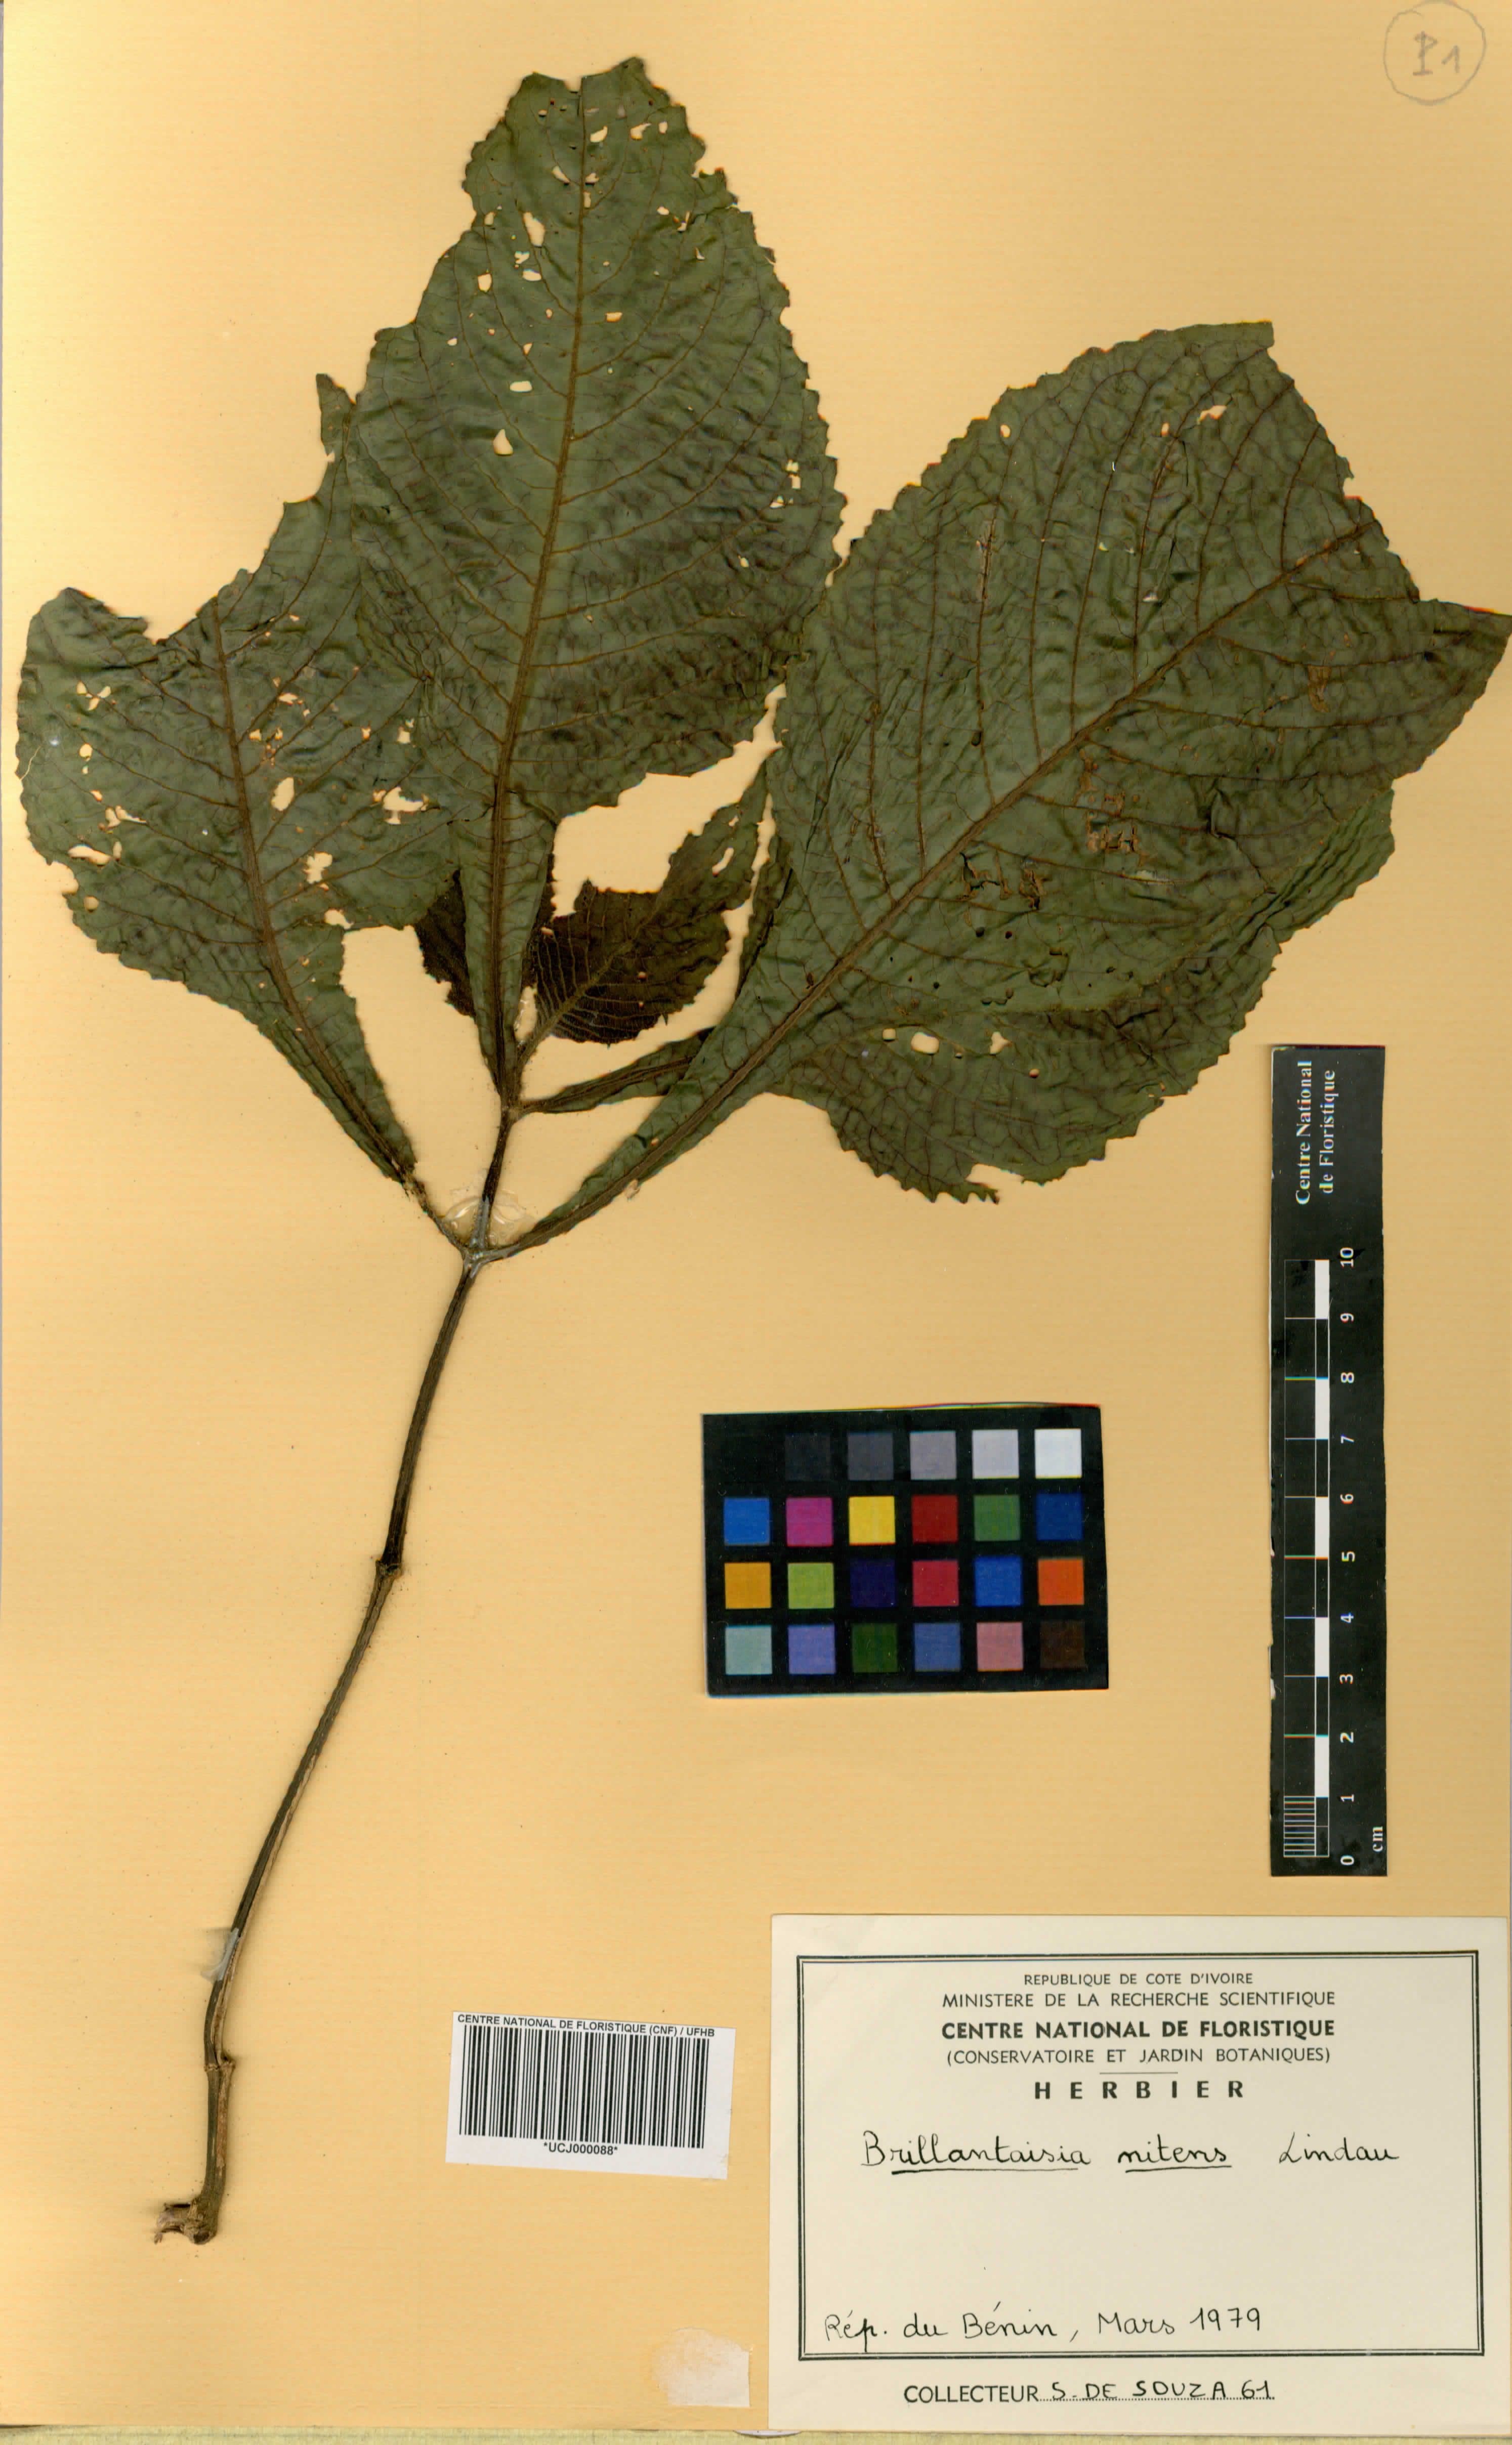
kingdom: Plantae
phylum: Tracheophyta
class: Magnoliopsida
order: Lamiales
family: Acanthaceae
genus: Brillantaisia
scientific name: Brillantaisia owariensis
